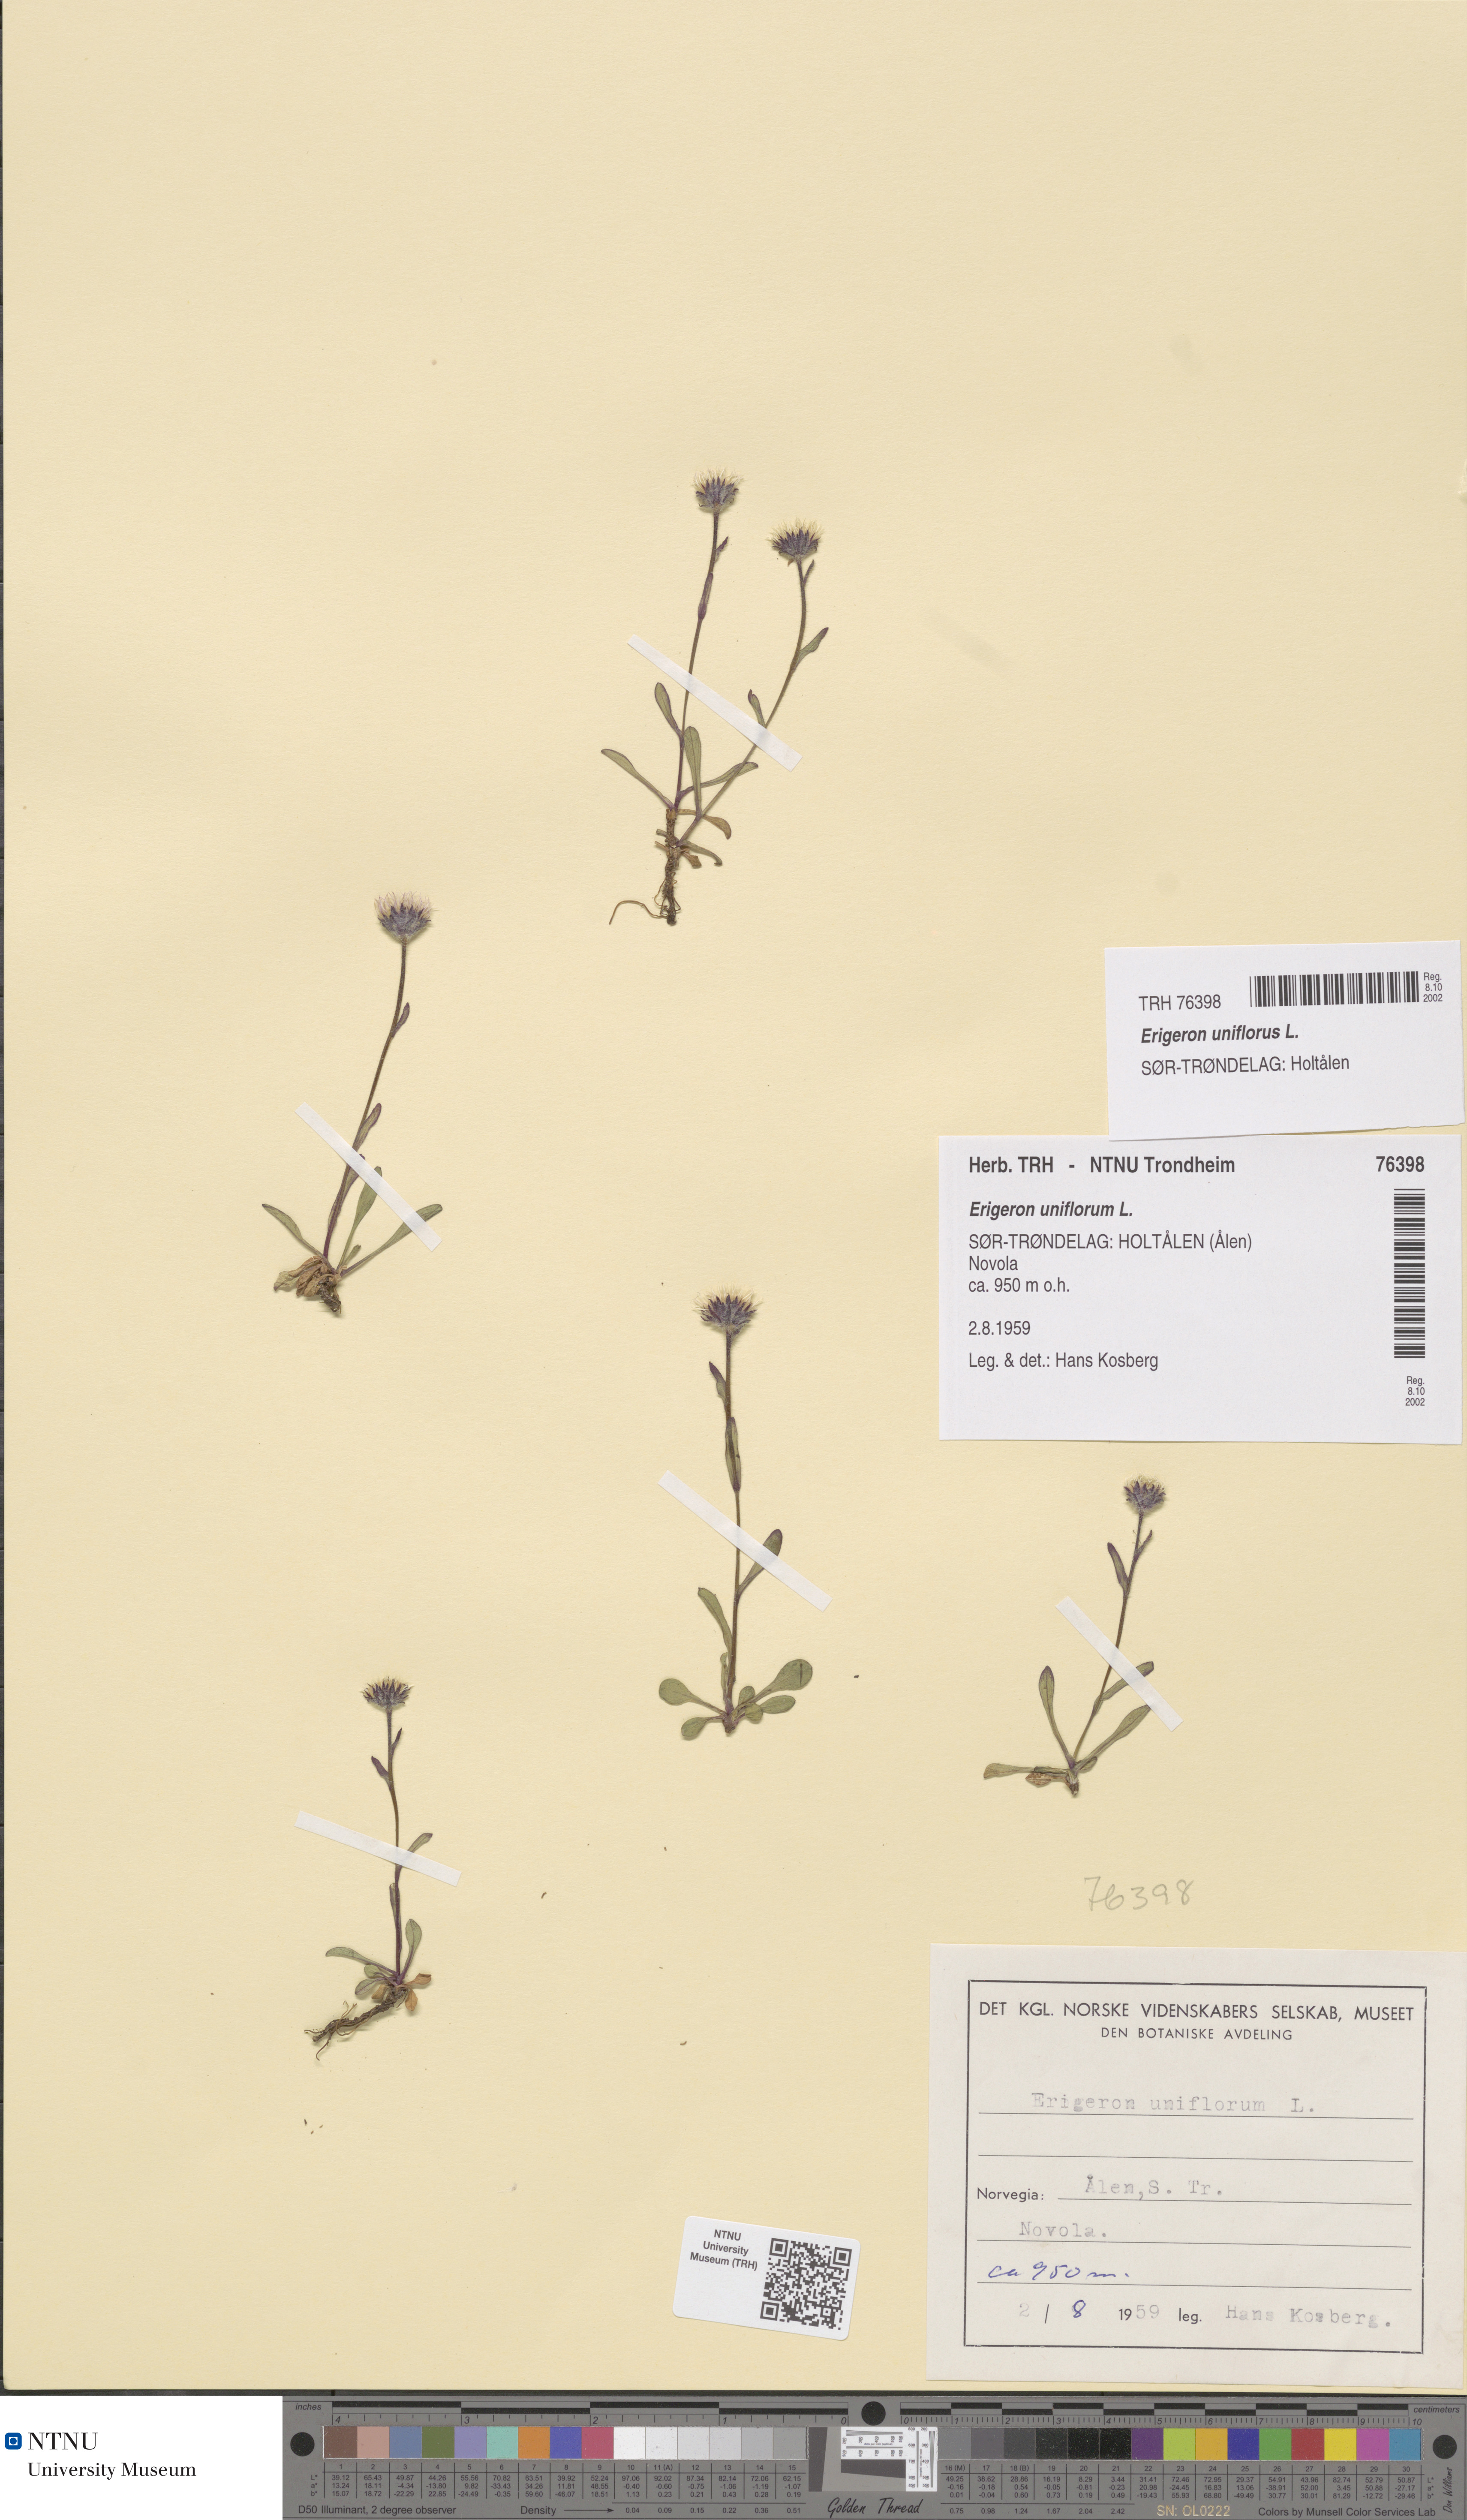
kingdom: Plantae
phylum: Tracheophyta
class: Magnoliopsida
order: Asterales
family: Asteraceae
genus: Erigeron
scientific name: Erigeron uniflorus
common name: Northern daisy
